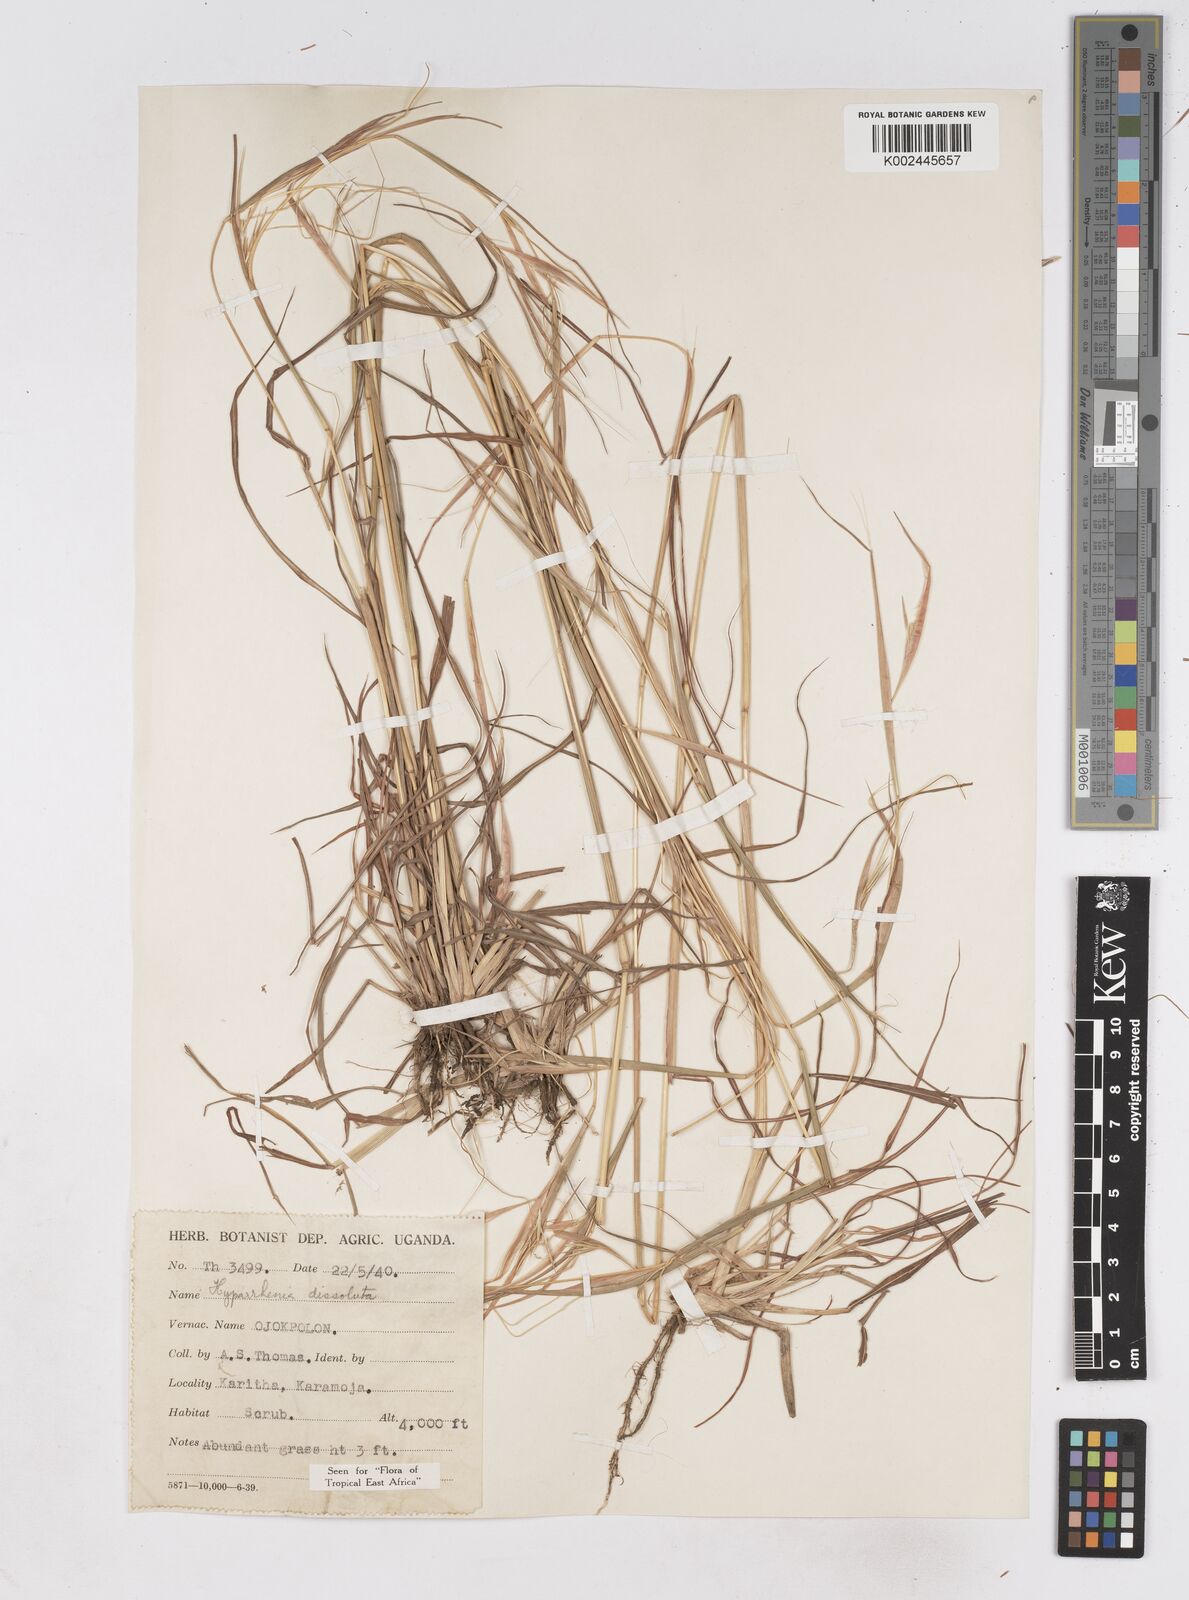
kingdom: Plantae
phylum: Tracheophyta
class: Liliopsida
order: Poales
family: Poaceae
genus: Hyperthelia
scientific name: Hyperthelia dissoluta
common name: Yellow thatching grass
